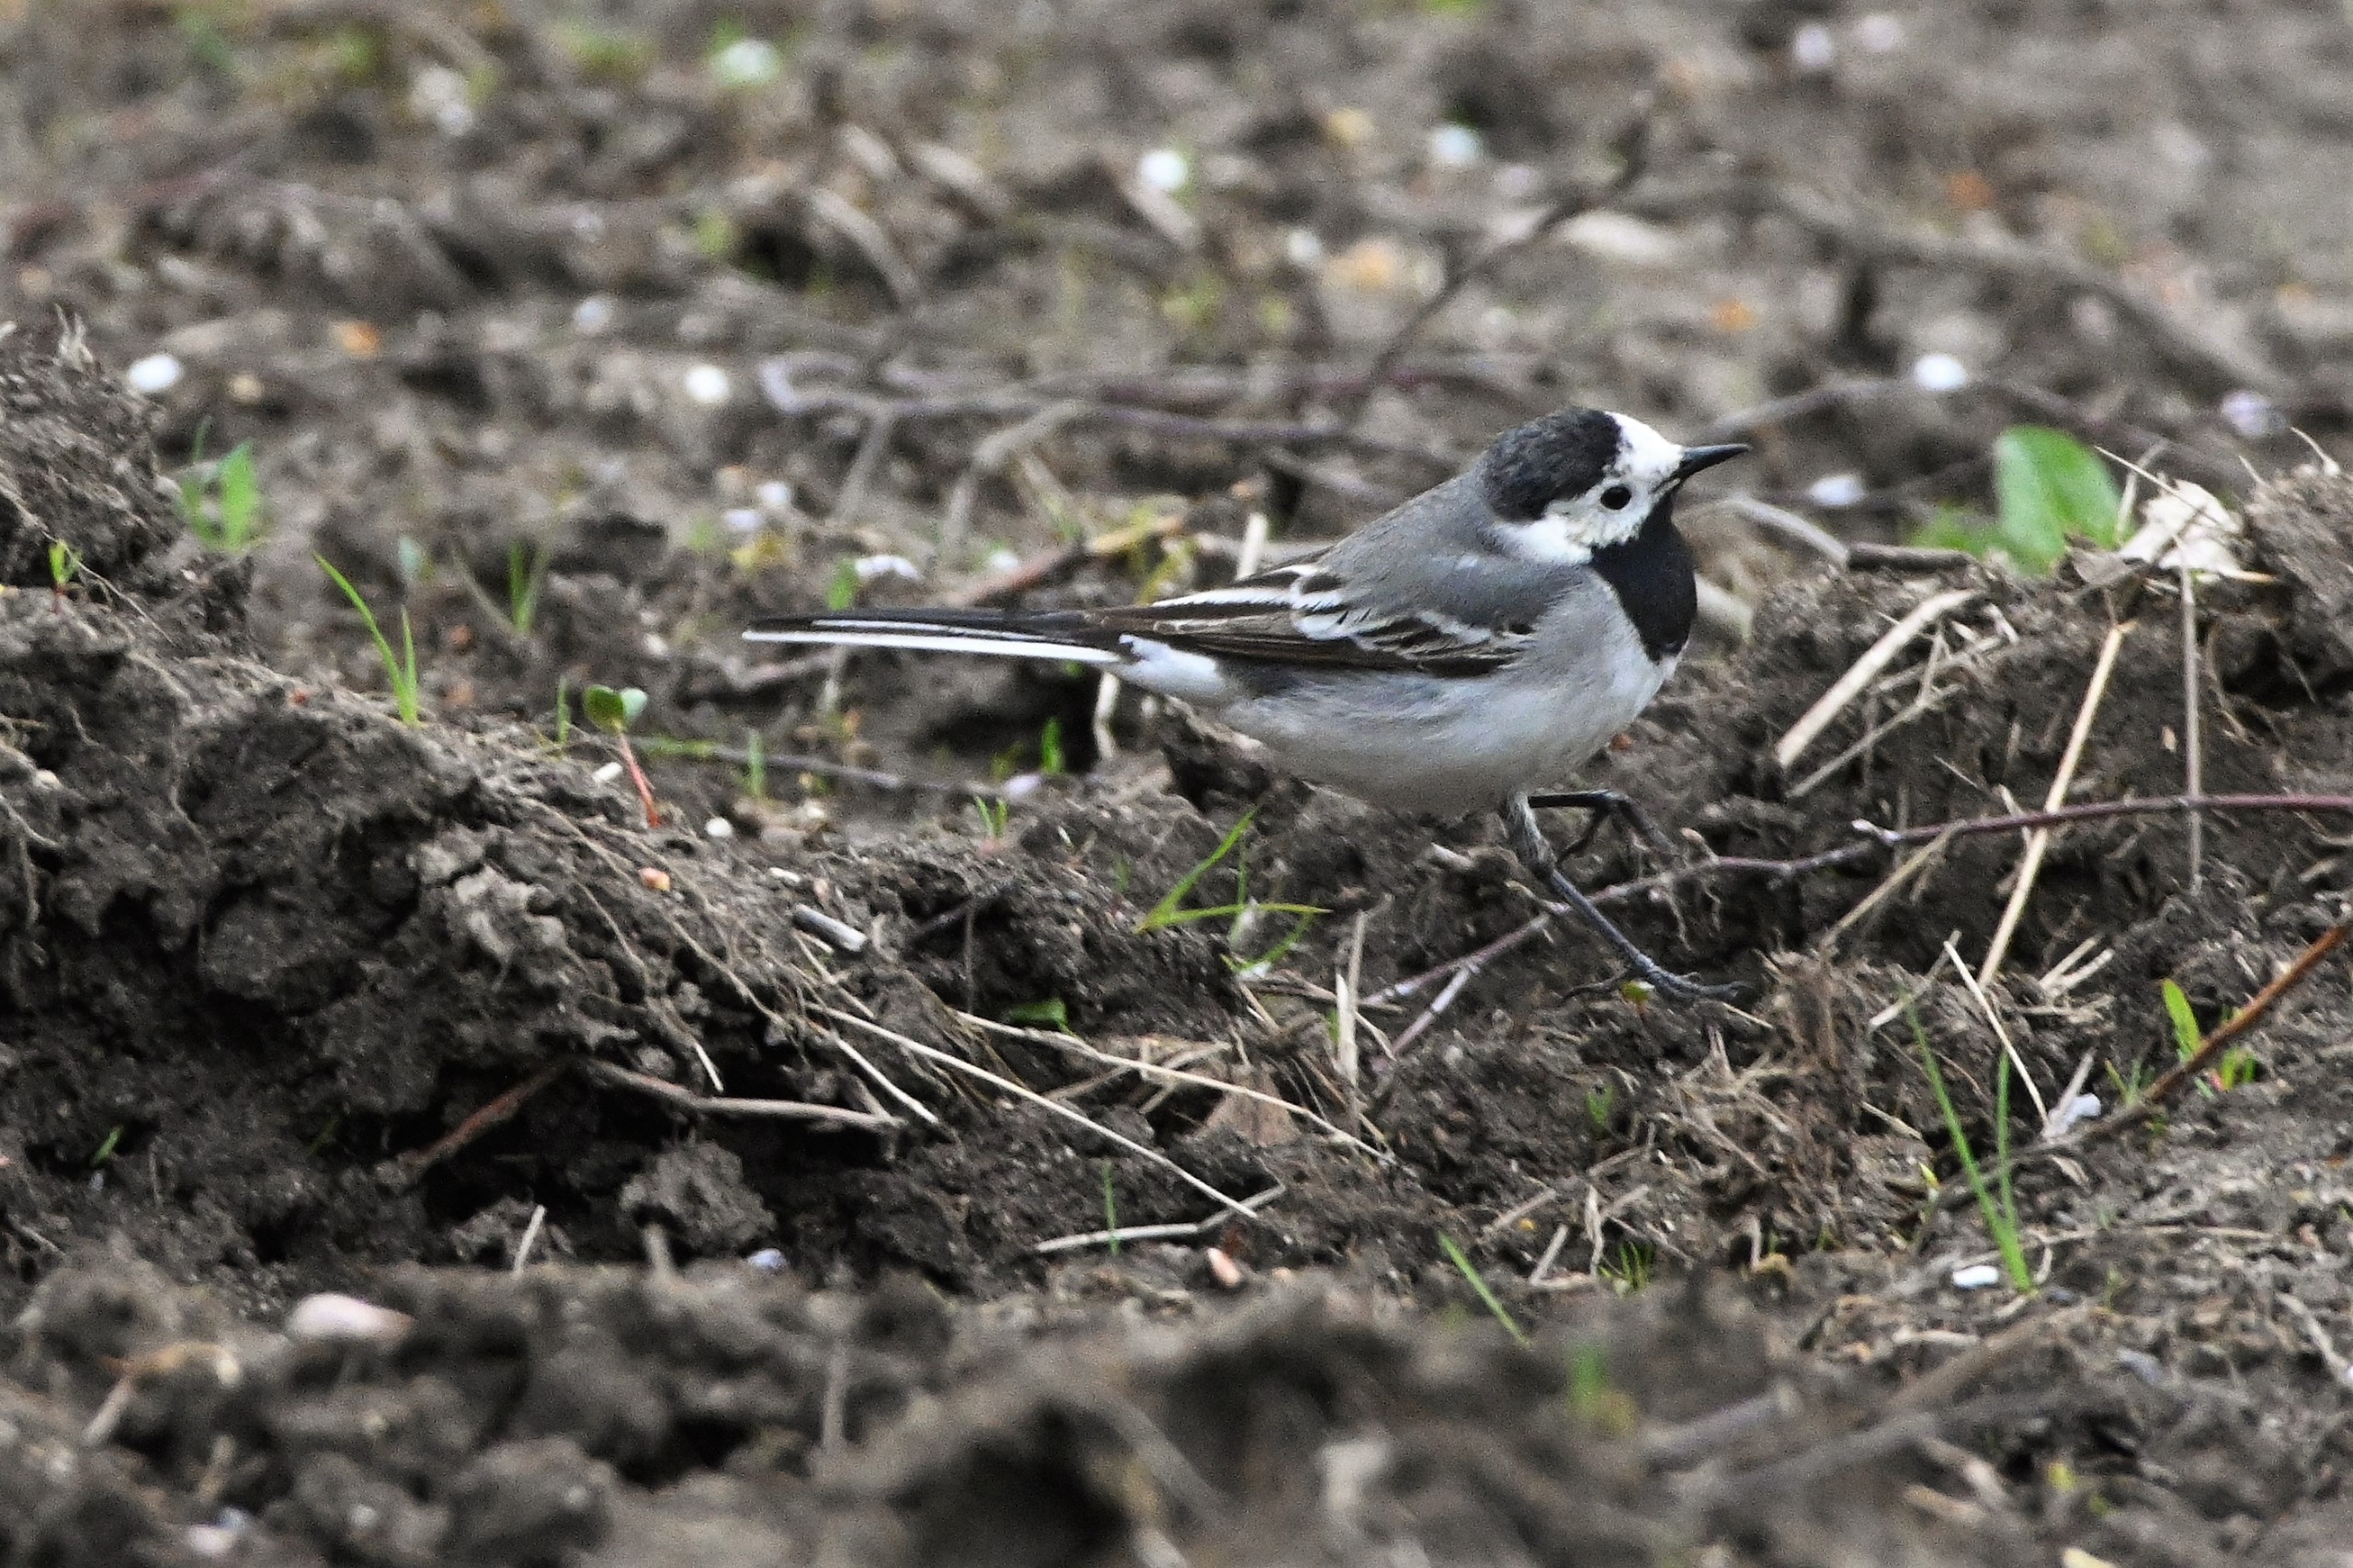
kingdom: Animalia
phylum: Chordata
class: Aves
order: Passeriformes
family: Motacillidae
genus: Motacilla
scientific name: Motacilla alba
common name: Hvid vipstjert
